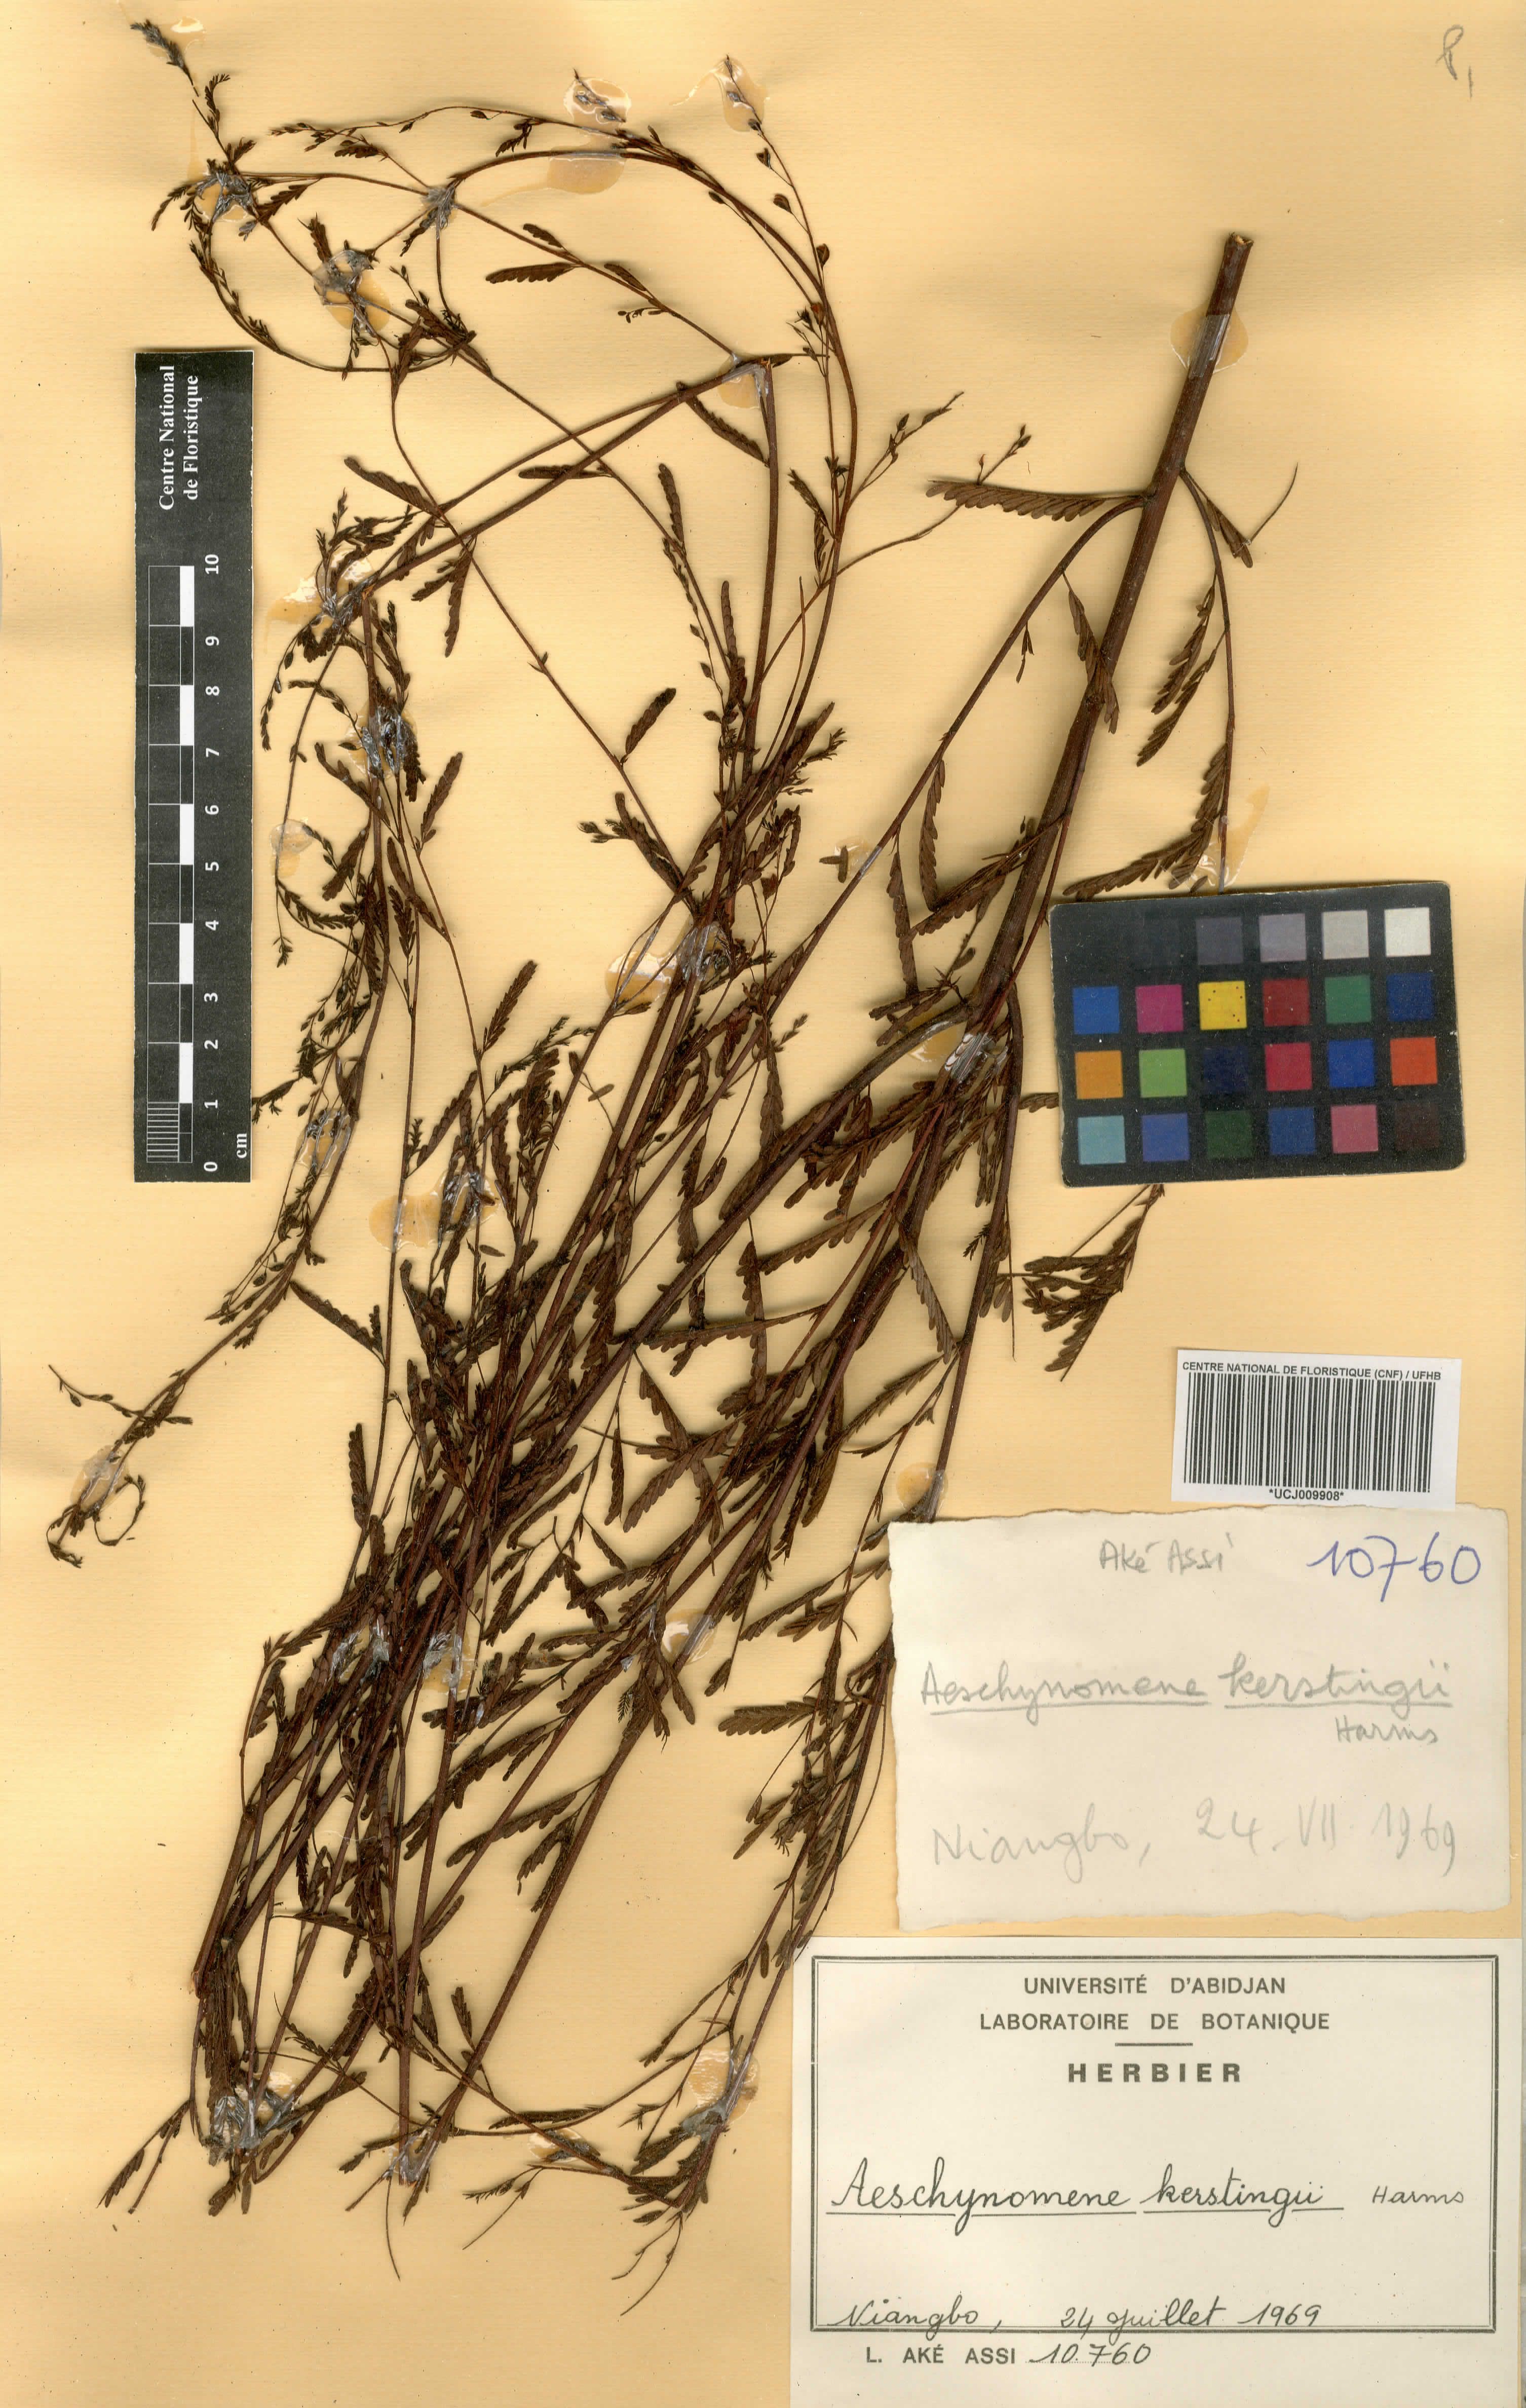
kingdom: Plantae
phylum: Tracheophyta
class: Magnoliopsida
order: Fabales
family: Fabaceae
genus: Aeschynomene
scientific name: Aeschynomene kerstingii
